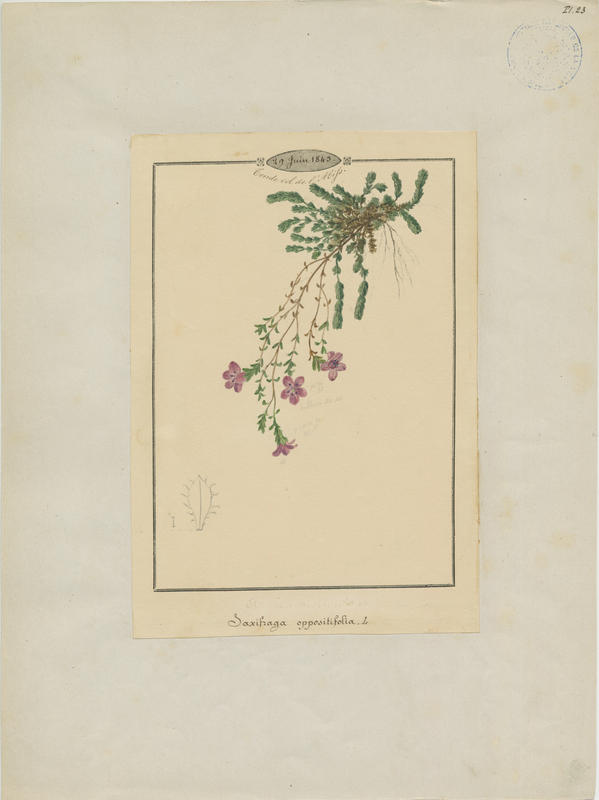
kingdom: Plantae
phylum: Tracheophyta
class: Magnoliopsida
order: Saxifragales
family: Saxifragaceae
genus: Saxifraga
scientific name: Saxifraga oppositifolia
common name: Purple saxifrage
